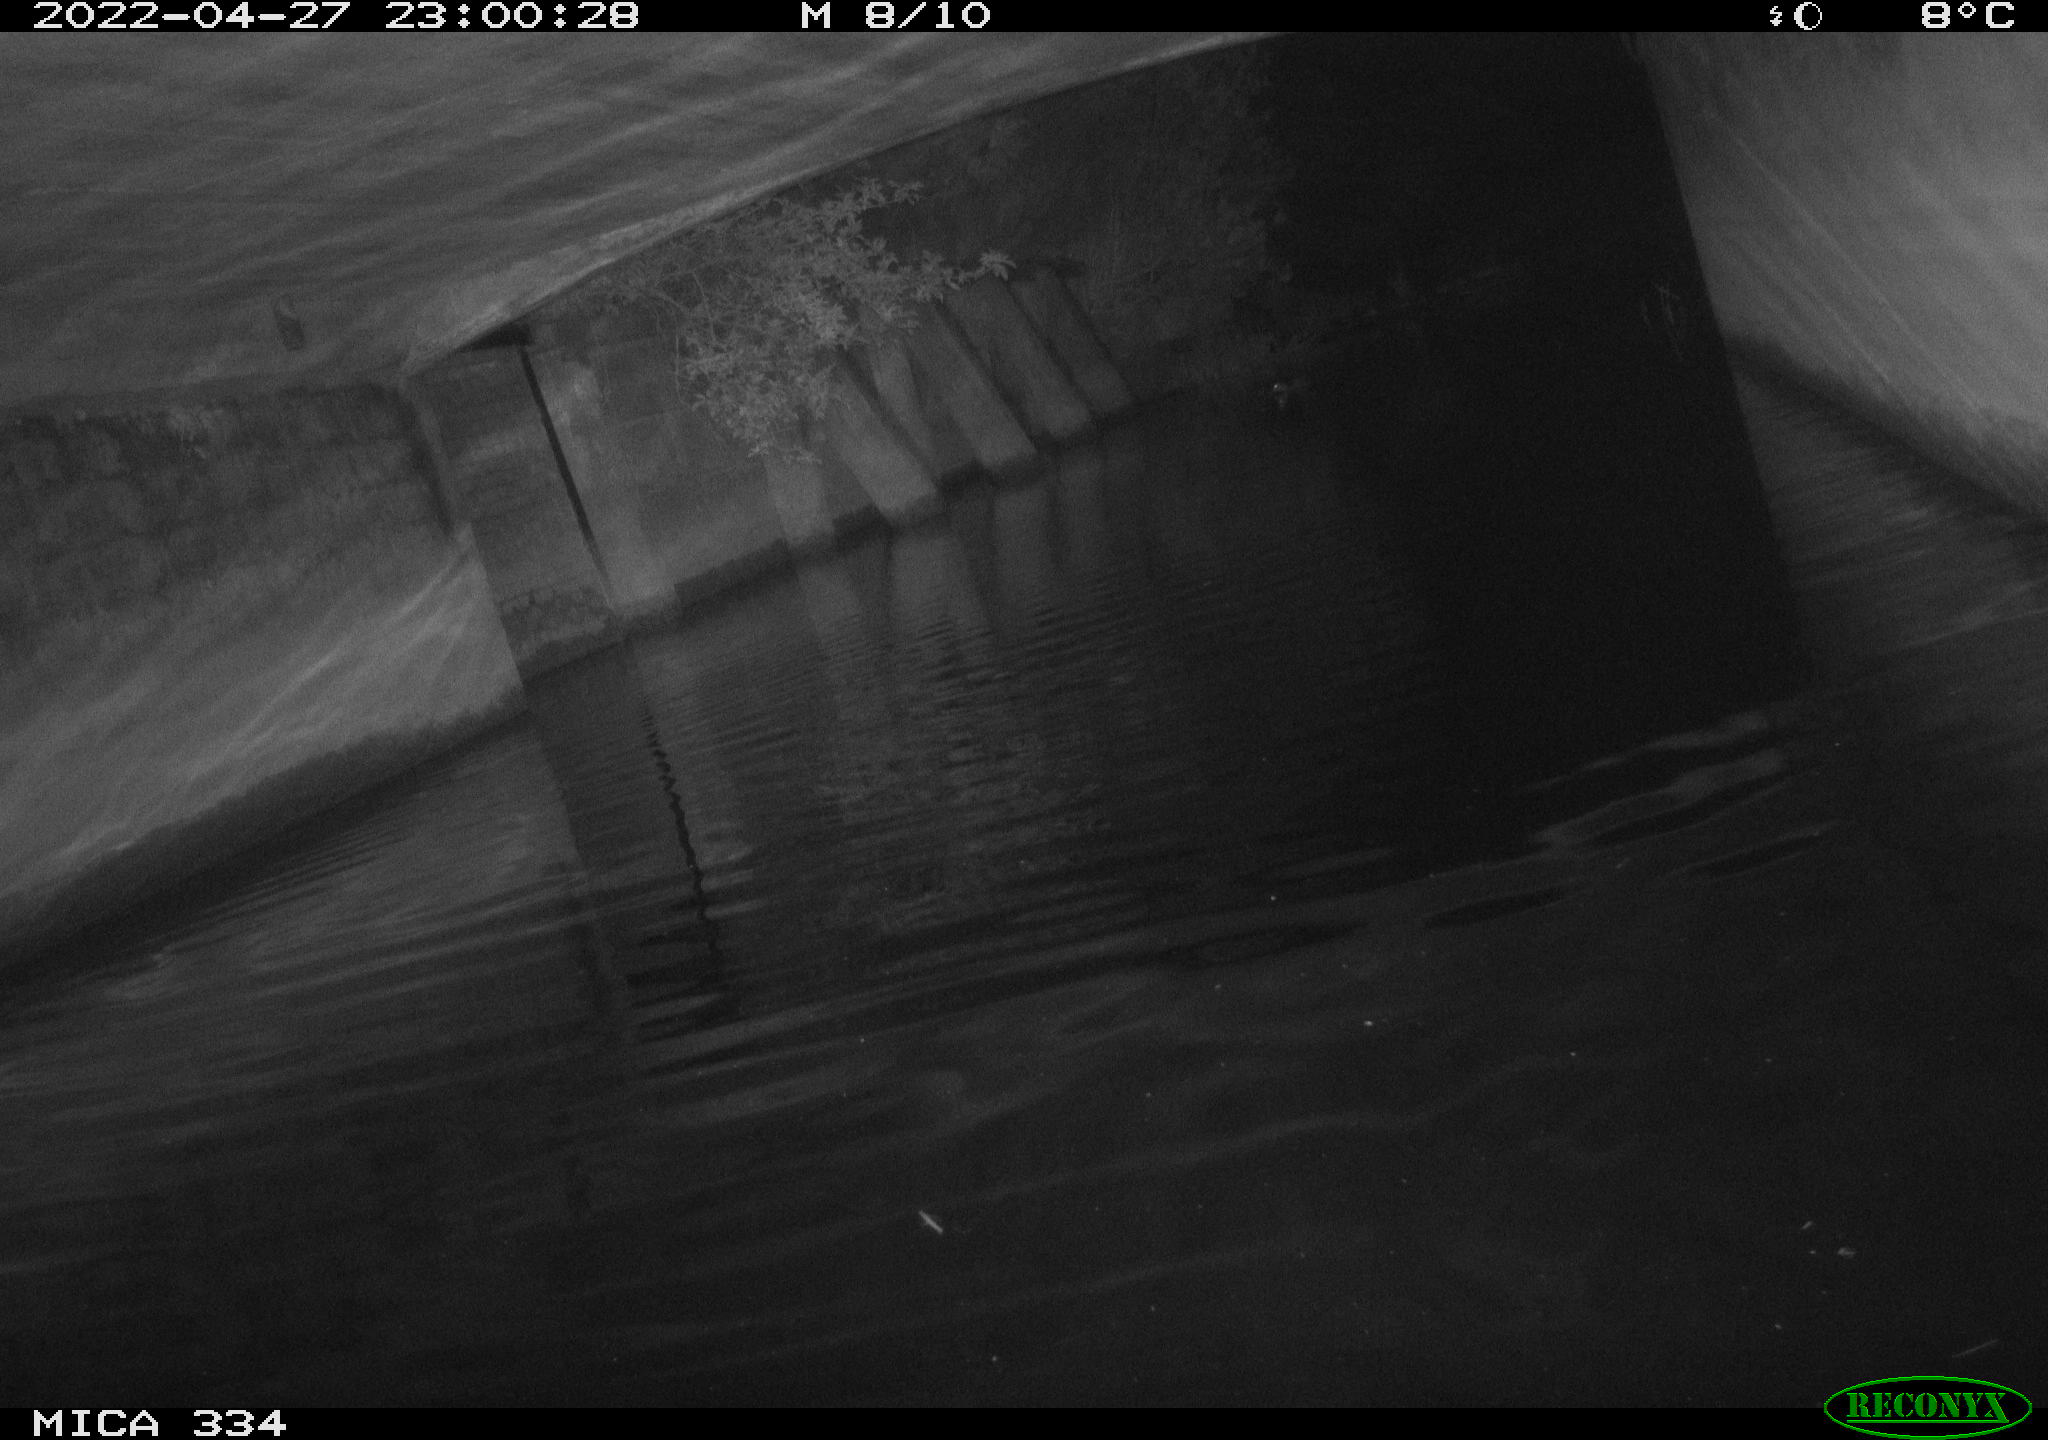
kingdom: Animalia
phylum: Chordata
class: Aves
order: Anseriformes
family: Anatidae
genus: Anas
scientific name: Anas platyrhynchos
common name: Mallard
